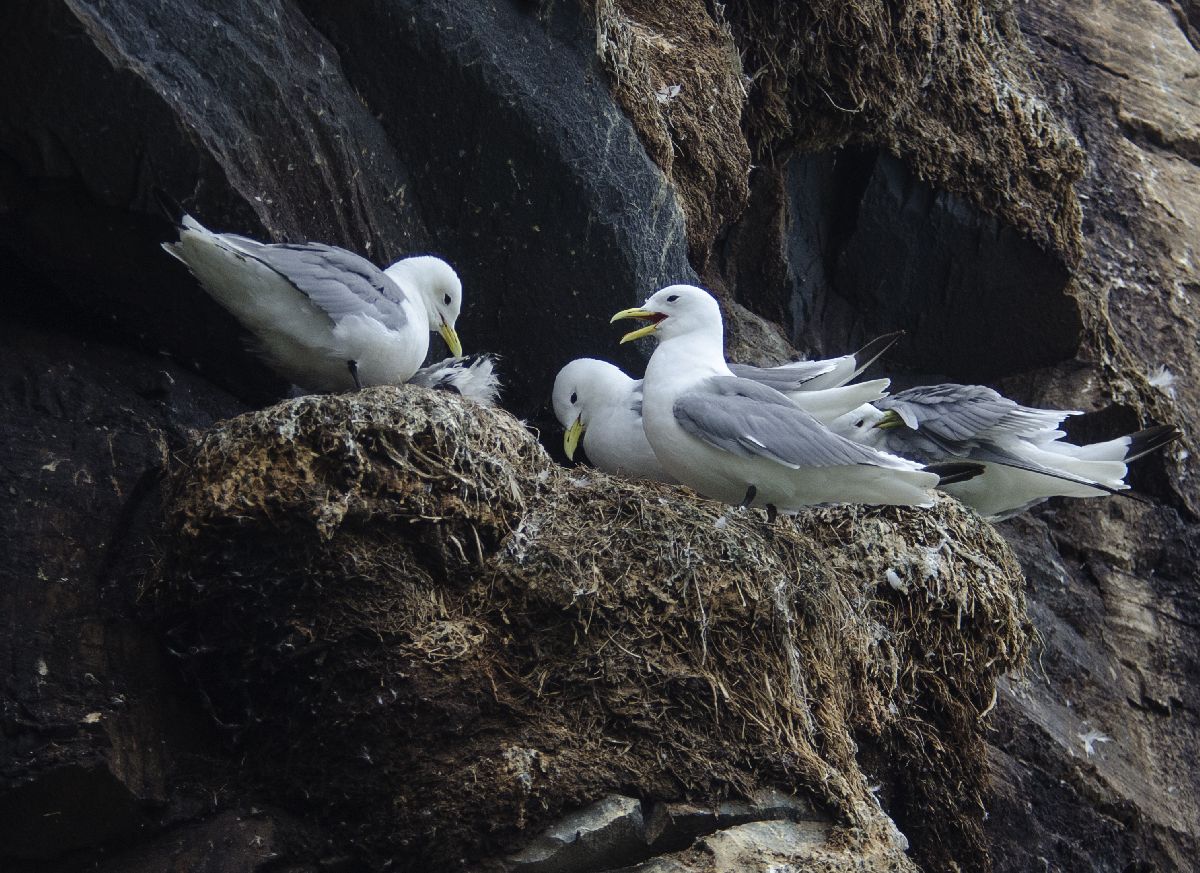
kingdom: Animalia
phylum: Chordata
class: Aves
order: Charadriiformes
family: Laridae
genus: Rissa
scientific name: Rissa tridactyla
